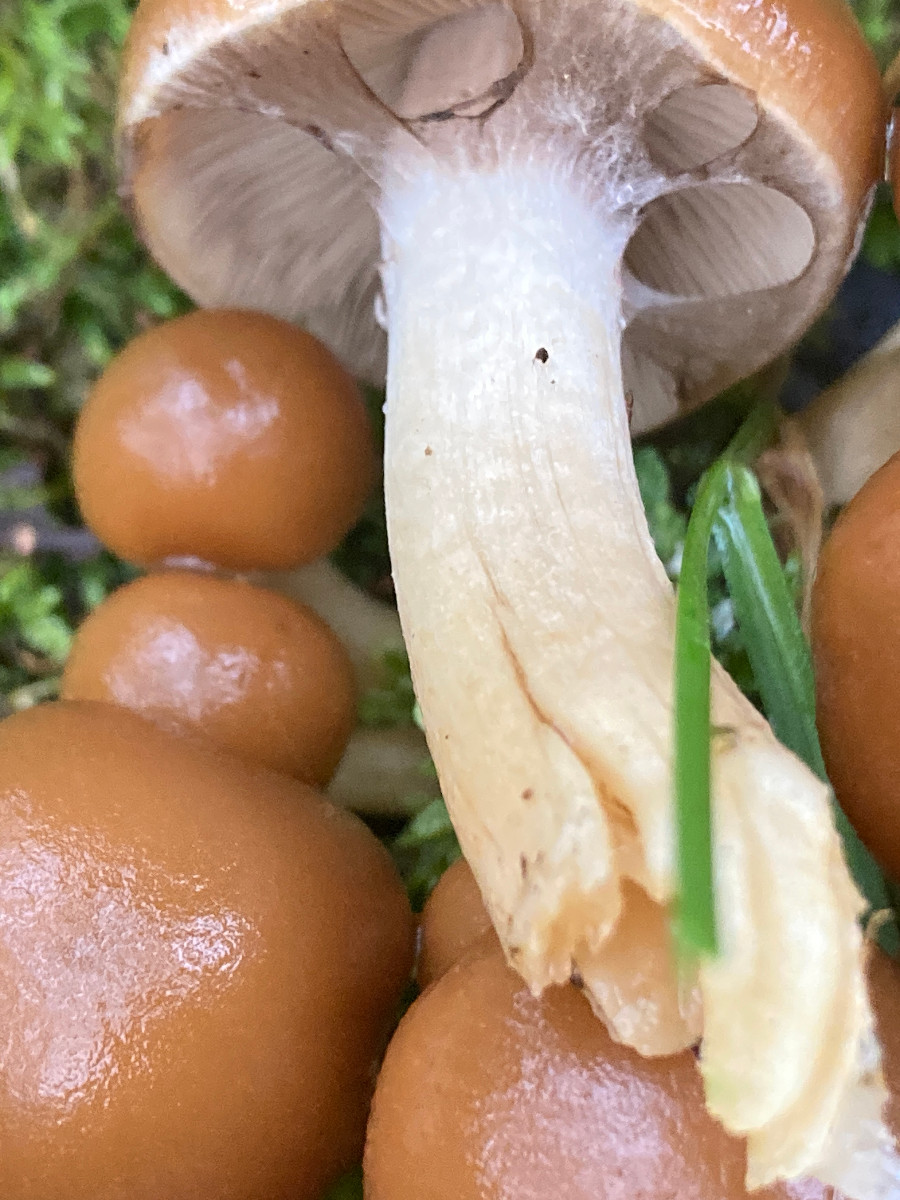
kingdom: Fungi
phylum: Basidiomycota
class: Agaricomycetes
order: Agaricales
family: Psathyrellaceae
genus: Psathyrella
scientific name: Psathyrella piluliformis
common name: lysstokket mørkhat
